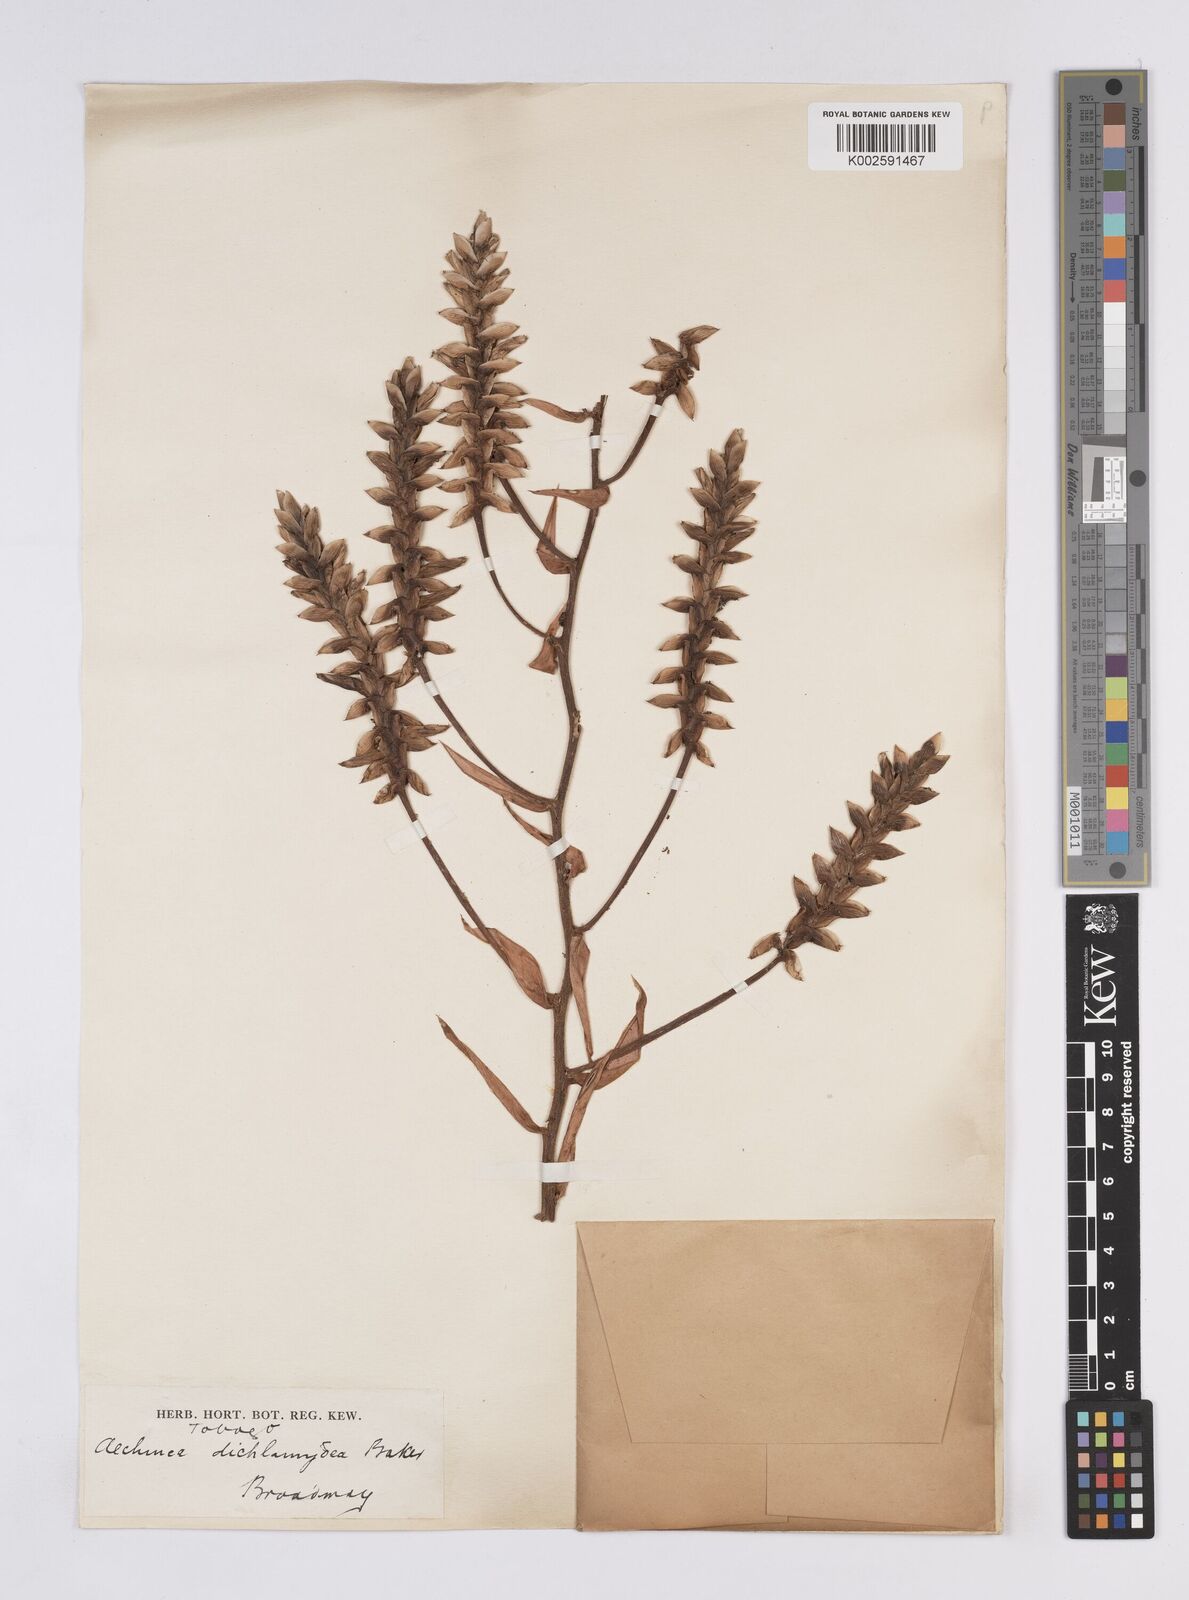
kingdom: Plantae
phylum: Tracheophyta
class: Liliopsida
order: Poales
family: Bromeliaceae
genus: Aechmea
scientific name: Aechmea dichlamydea
